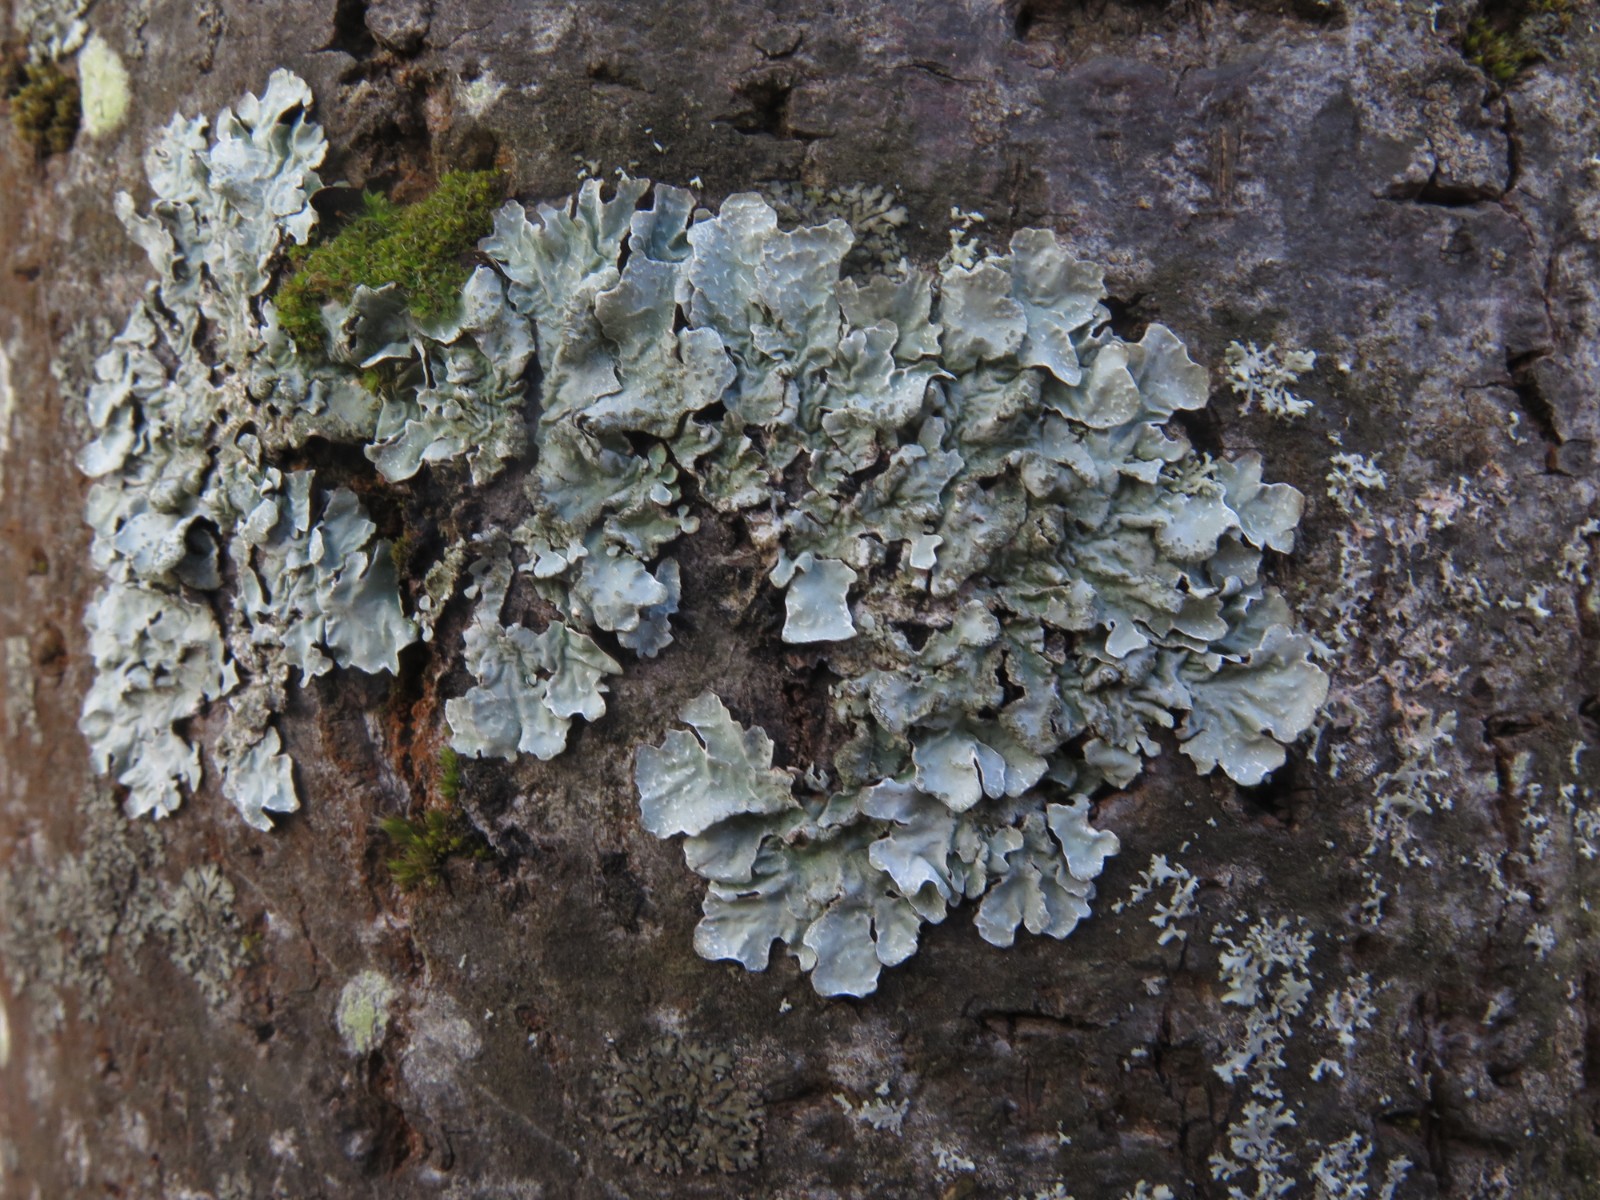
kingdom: Fungi
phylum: Ascomycota
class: Lecanoromycetes
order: Lecanorales
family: Parmeliaceae
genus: Parmelia
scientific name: Parmelia sulcata
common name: rynket skållav
